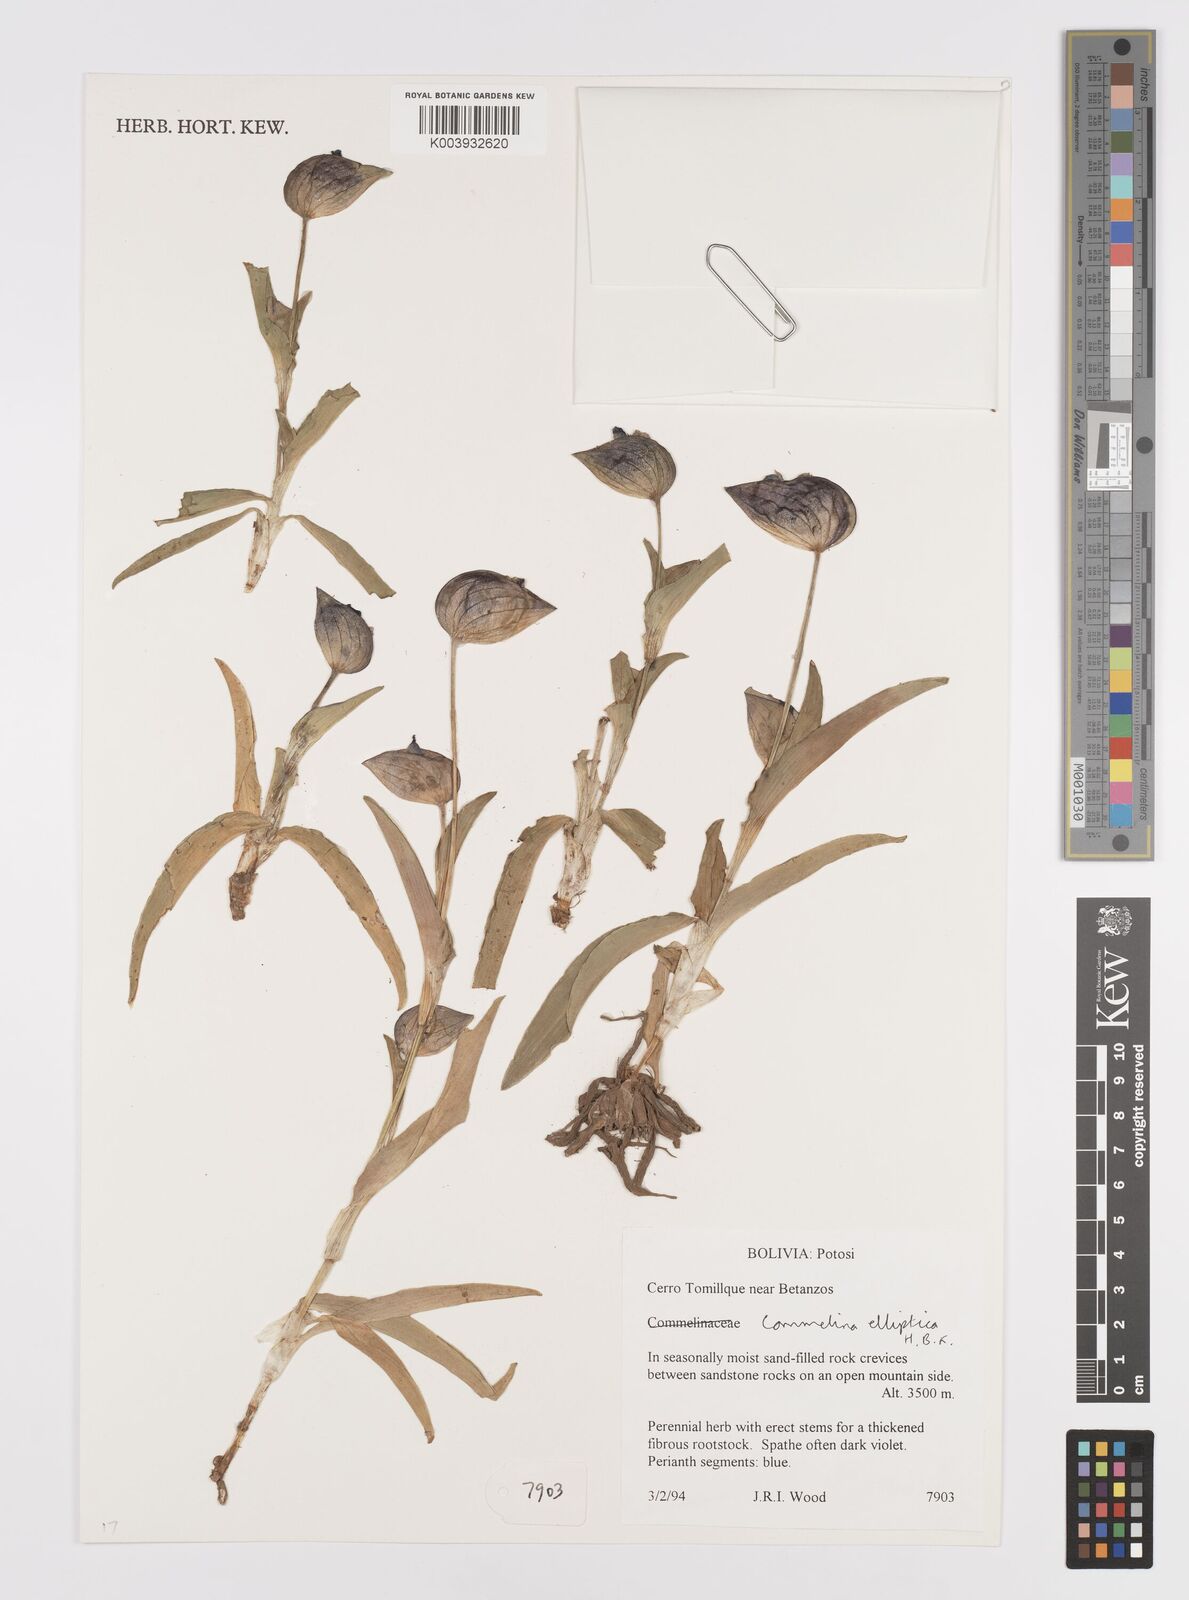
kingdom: Plantae
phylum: Tracheophyta
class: Liliopsida
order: Commelinales
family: Commelinaceae
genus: Commelina
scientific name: Commelina elliptica
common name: Peruvian spiderwort
